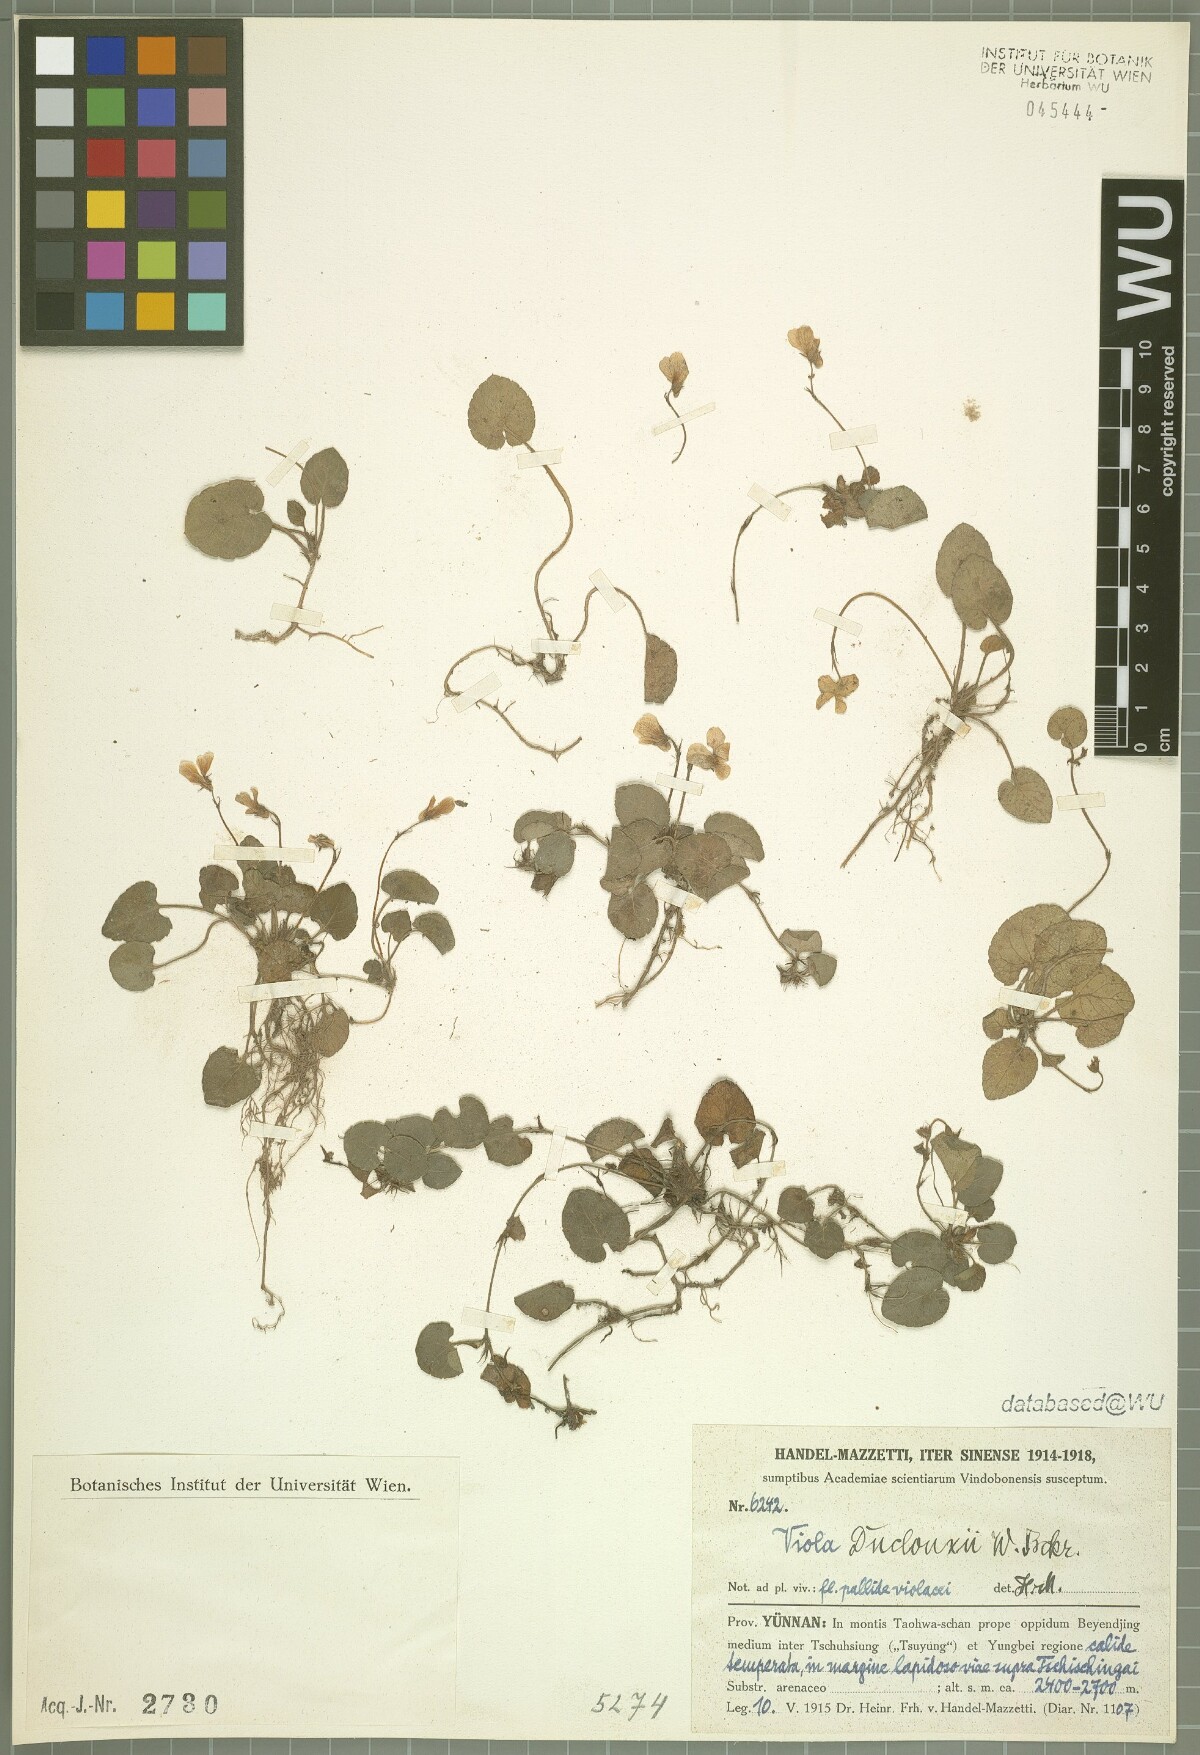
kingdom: Plantae
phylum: Tracheophyta
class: Magnoliopsida
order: Malpighiales
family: Violaceae
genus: Viola
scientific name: Viola duclouxii
